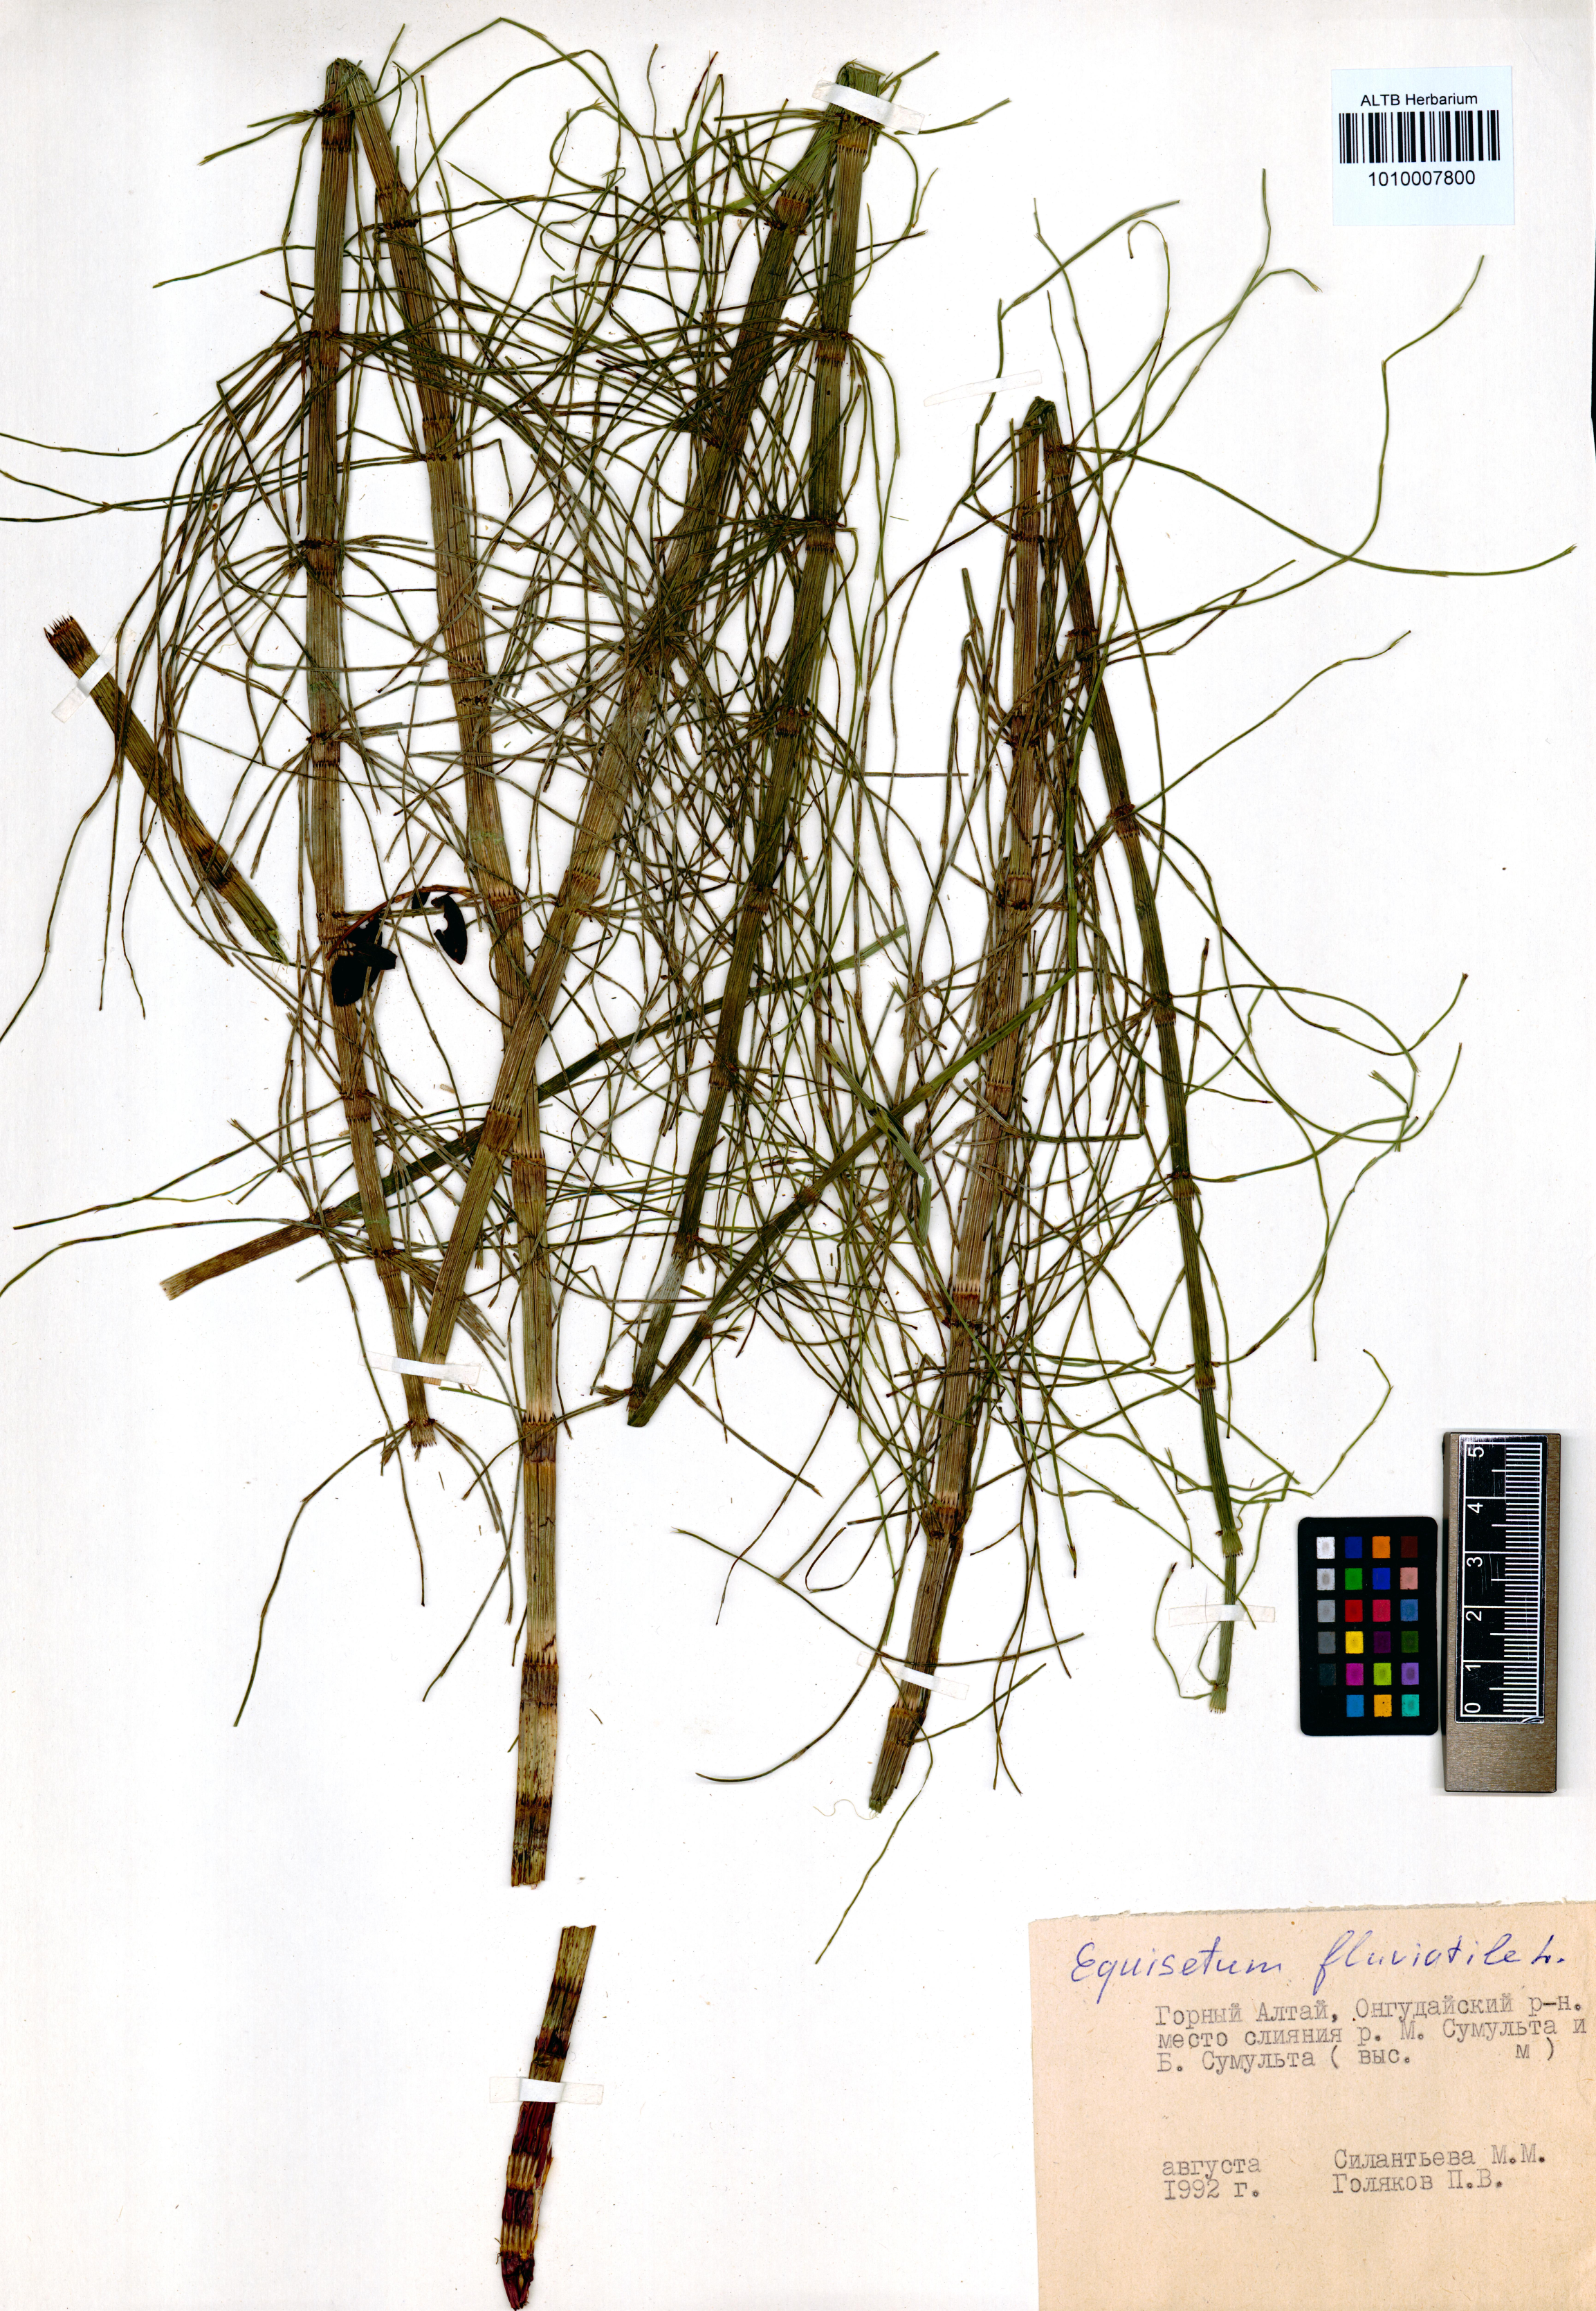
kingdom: Plantae
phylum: Tracheophyta
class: Polypodiopsida
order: Equisetales
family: Equisetaceae
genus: Equisetum
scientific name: Equisetum fluviatile
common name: Water horsetail
